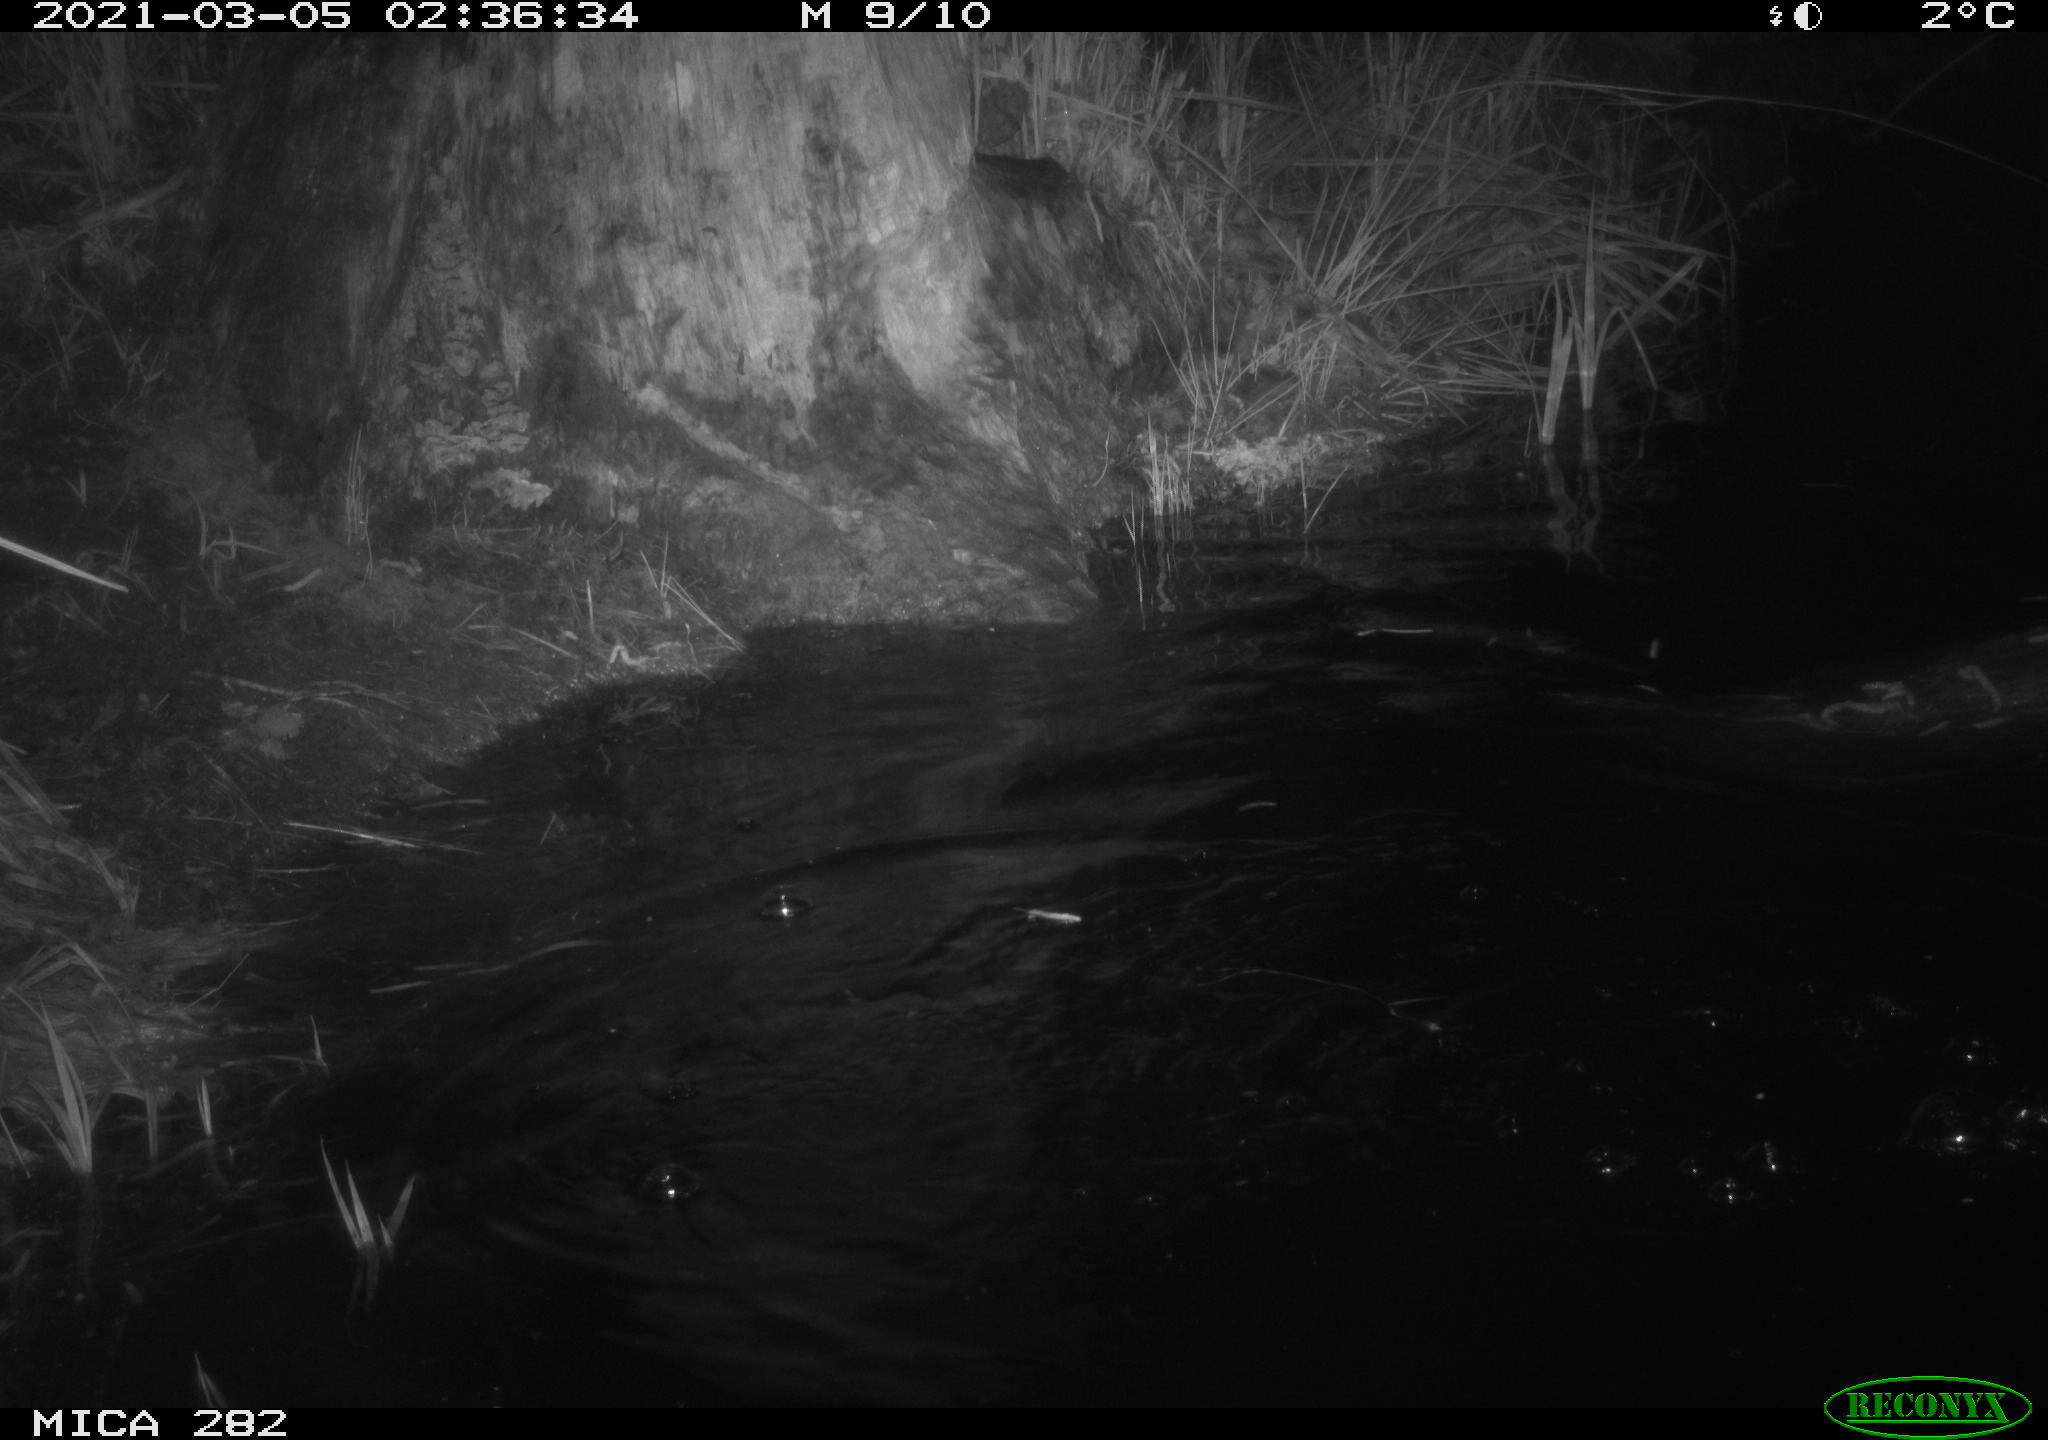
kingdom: Animalia
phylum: Chordata
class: Mammalia
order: Rodentia
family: Castoridae
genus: Castor
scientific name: Castor fiber
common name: Eurasian beaver
